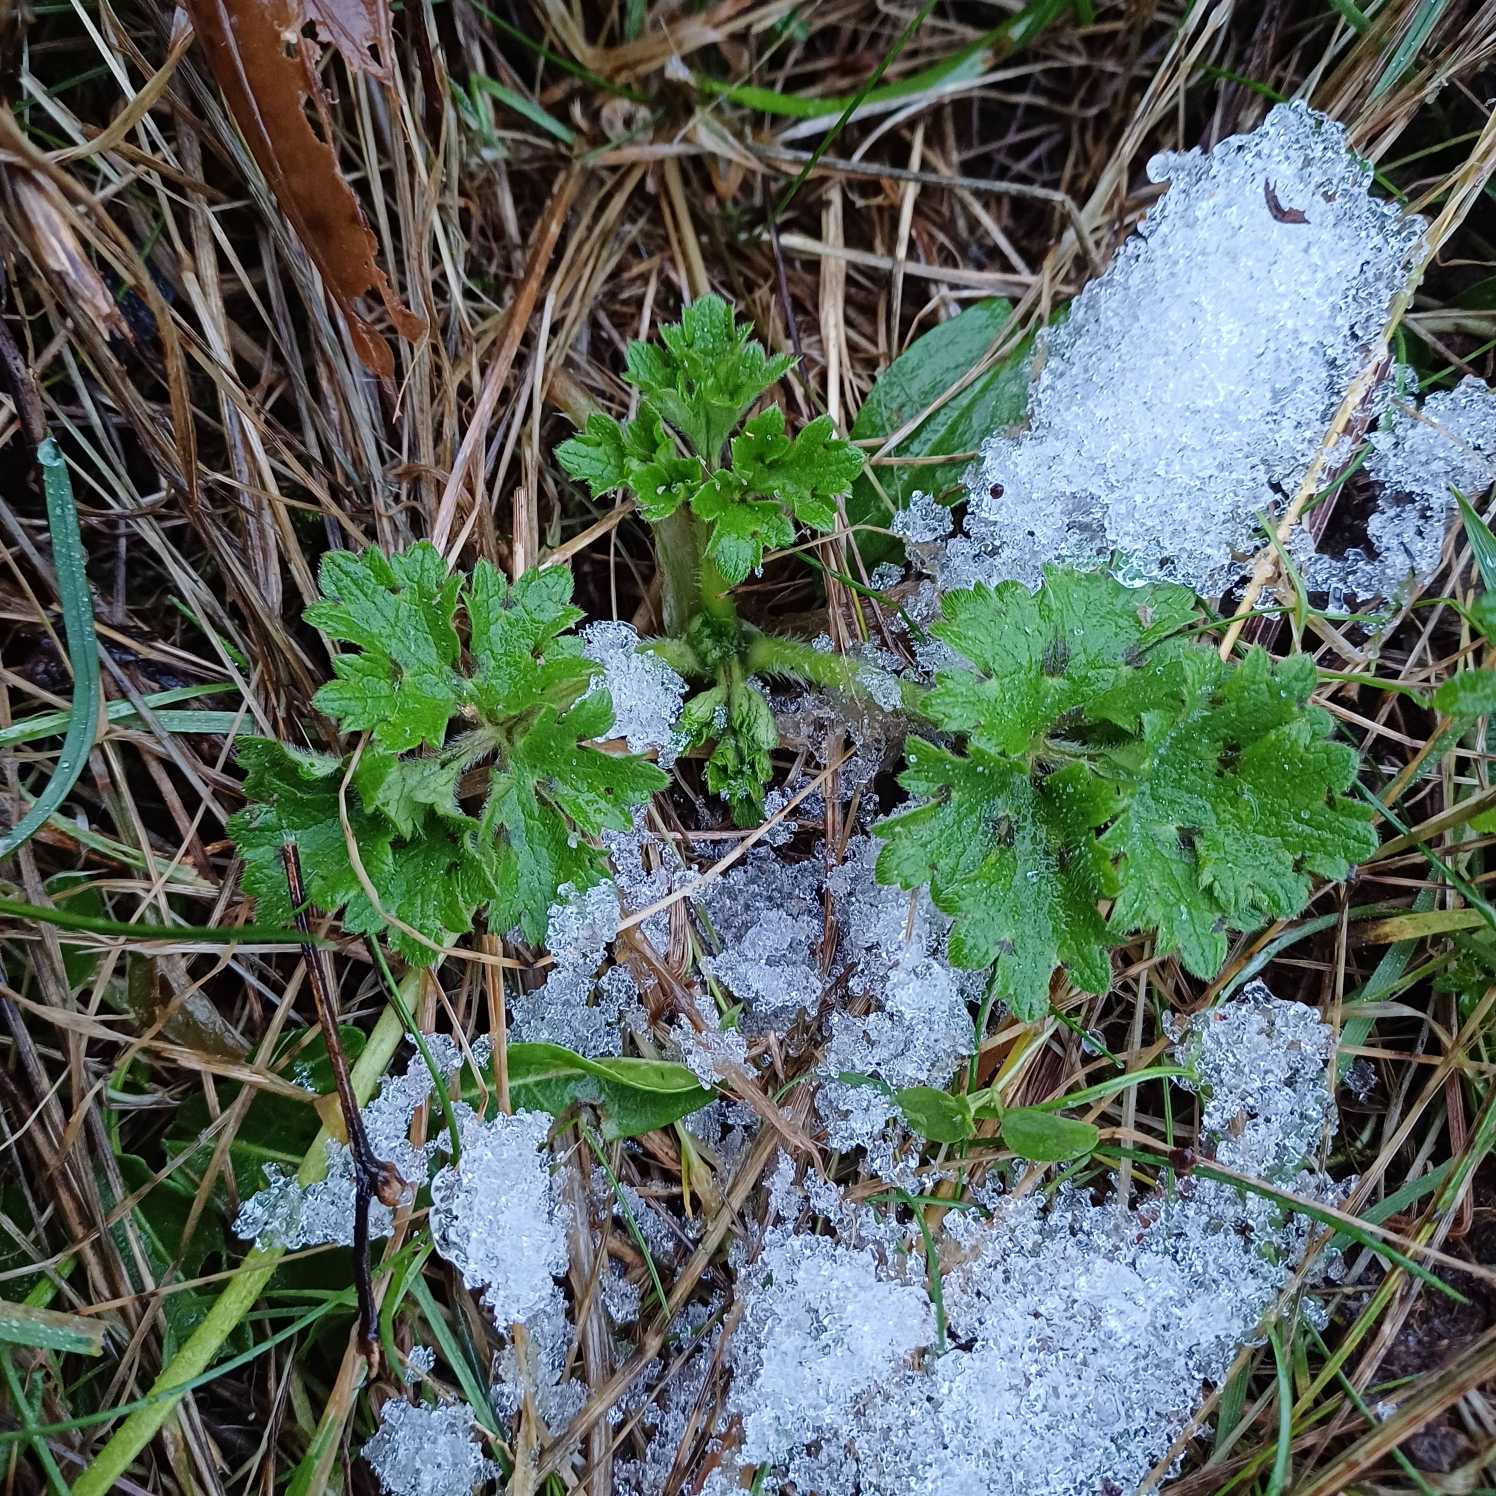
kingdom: Plantae
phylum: Tracheophyta
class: Magnoliopsida
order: Ranunculales
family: Ranunculaceae
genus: Ranunculus
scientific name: Ranunculus bulbosus
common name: Knold-ranunkel
